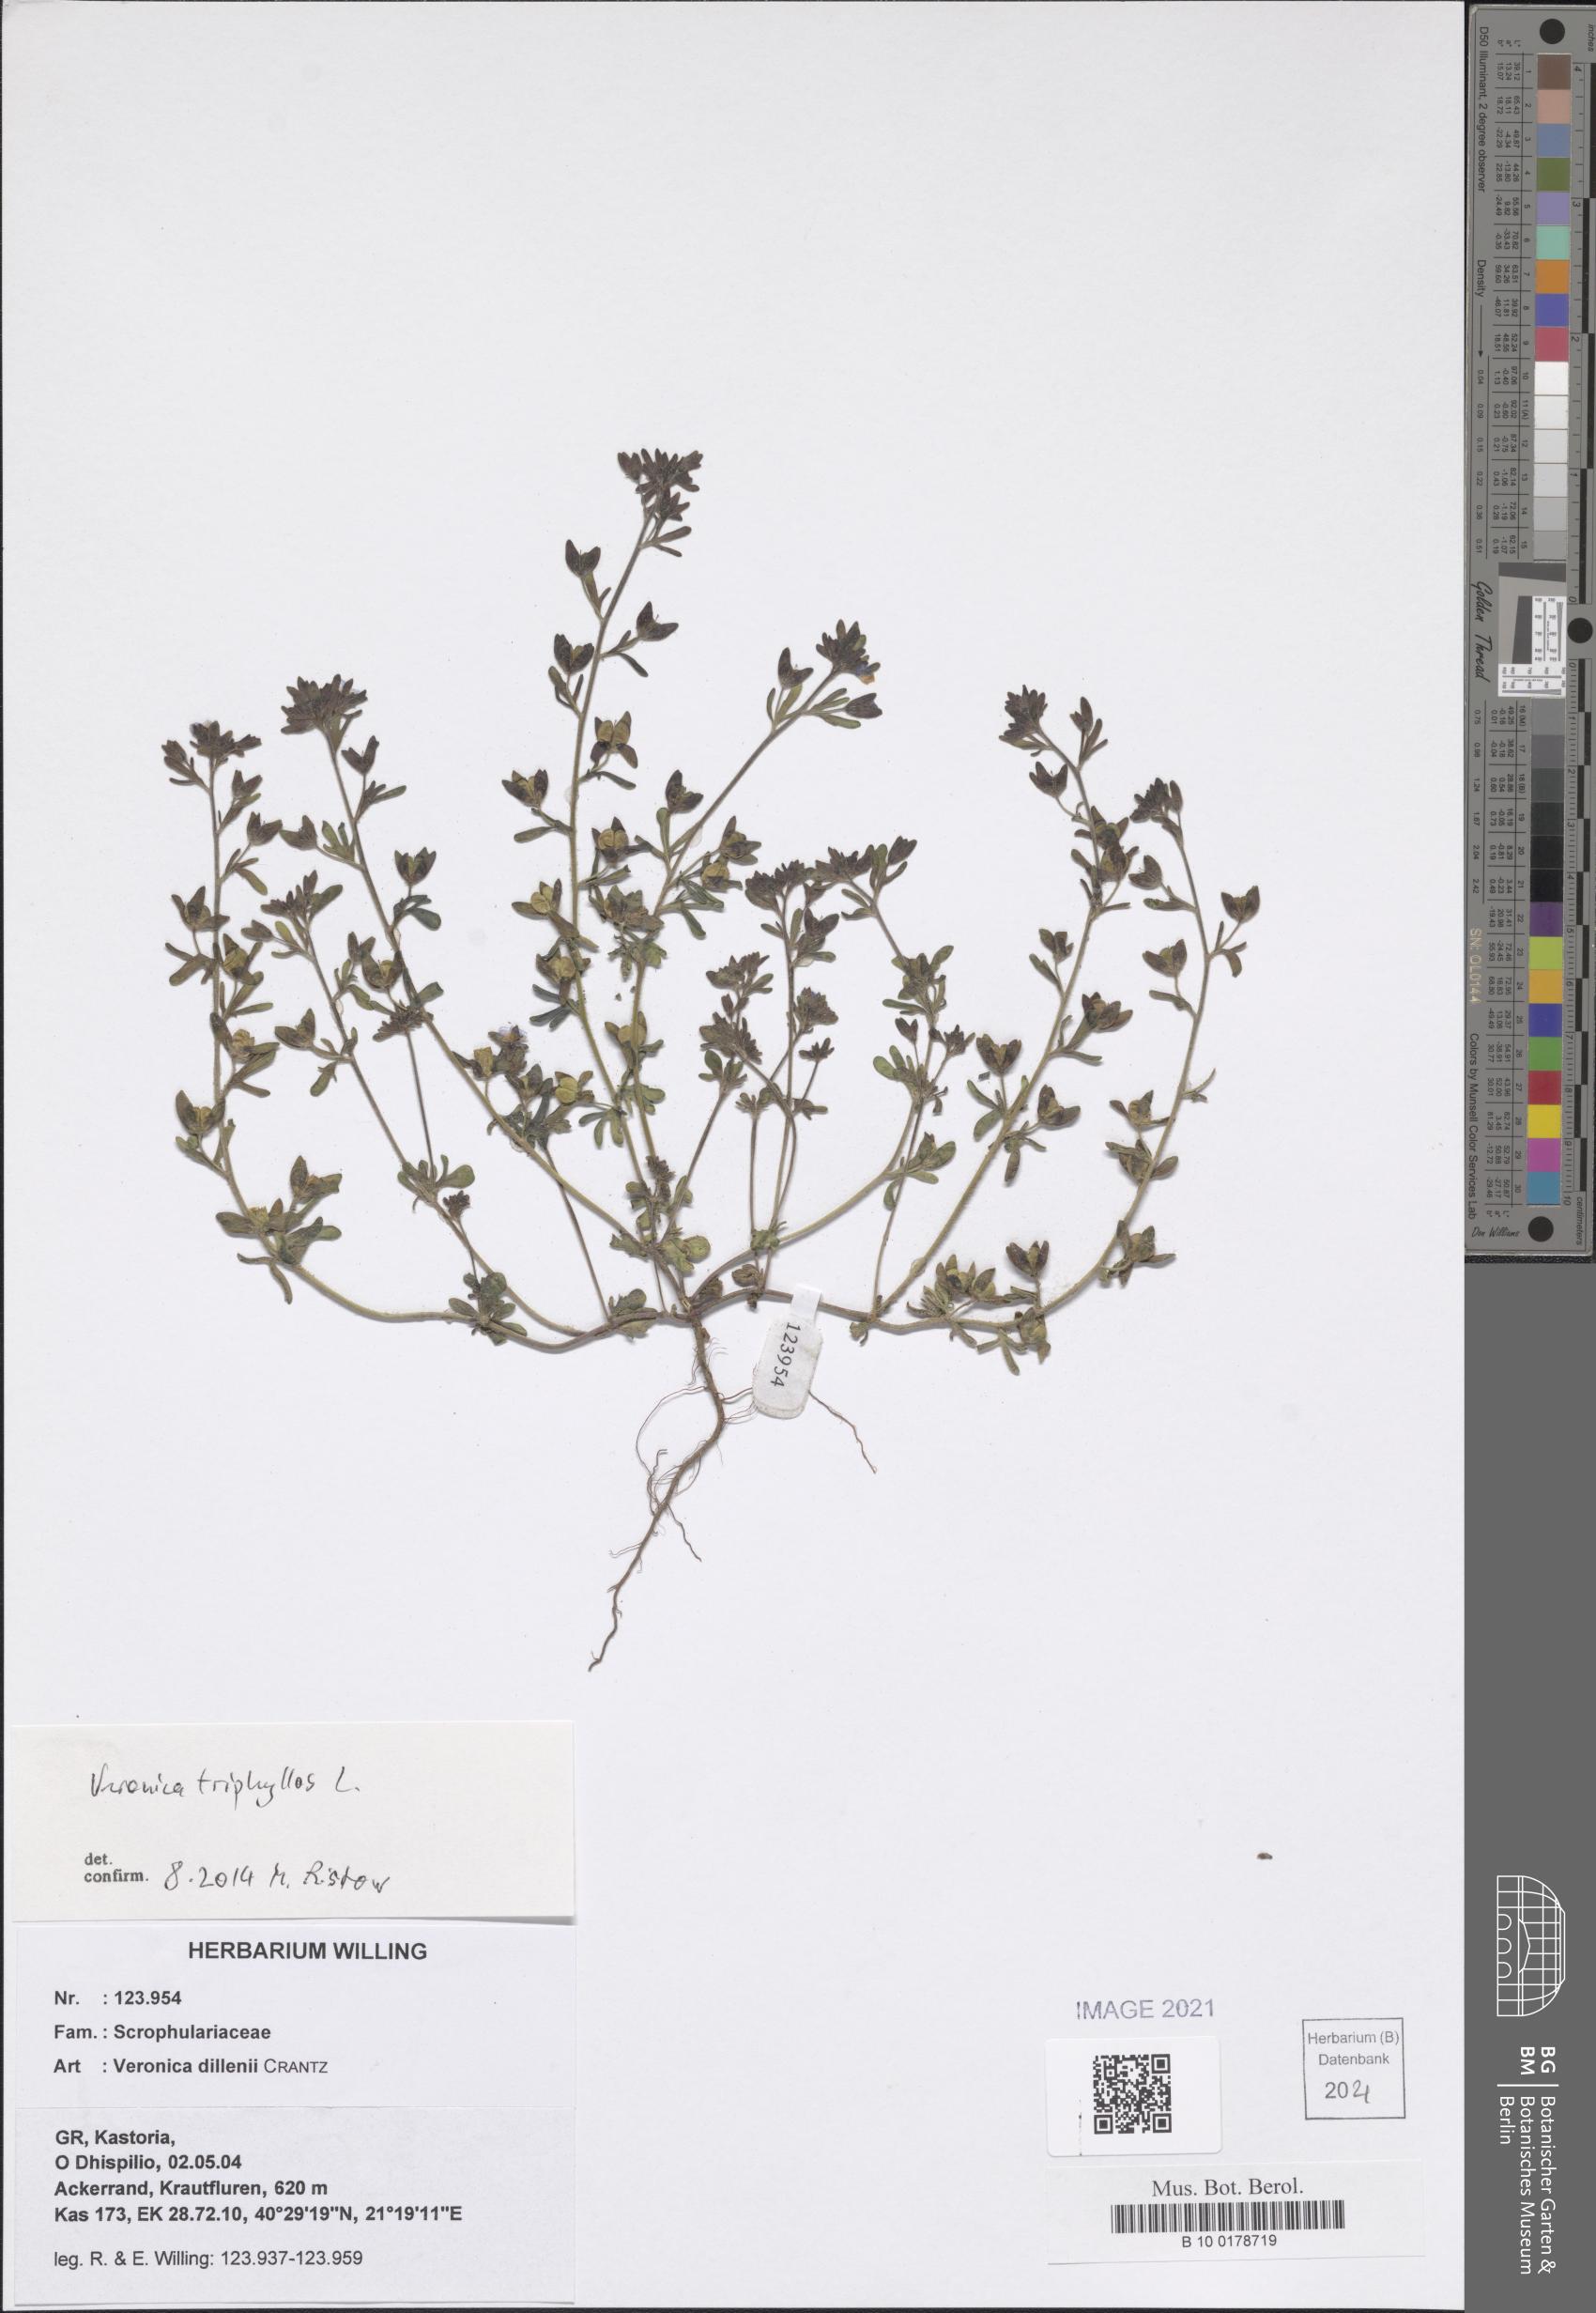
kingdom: Plantae
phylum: Tracheophyta
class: Magnoliopsida
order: Lamiales
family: Plantaginaceae
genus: Veronica
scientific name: Veronica triphyllos
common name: Fingered speedwell
